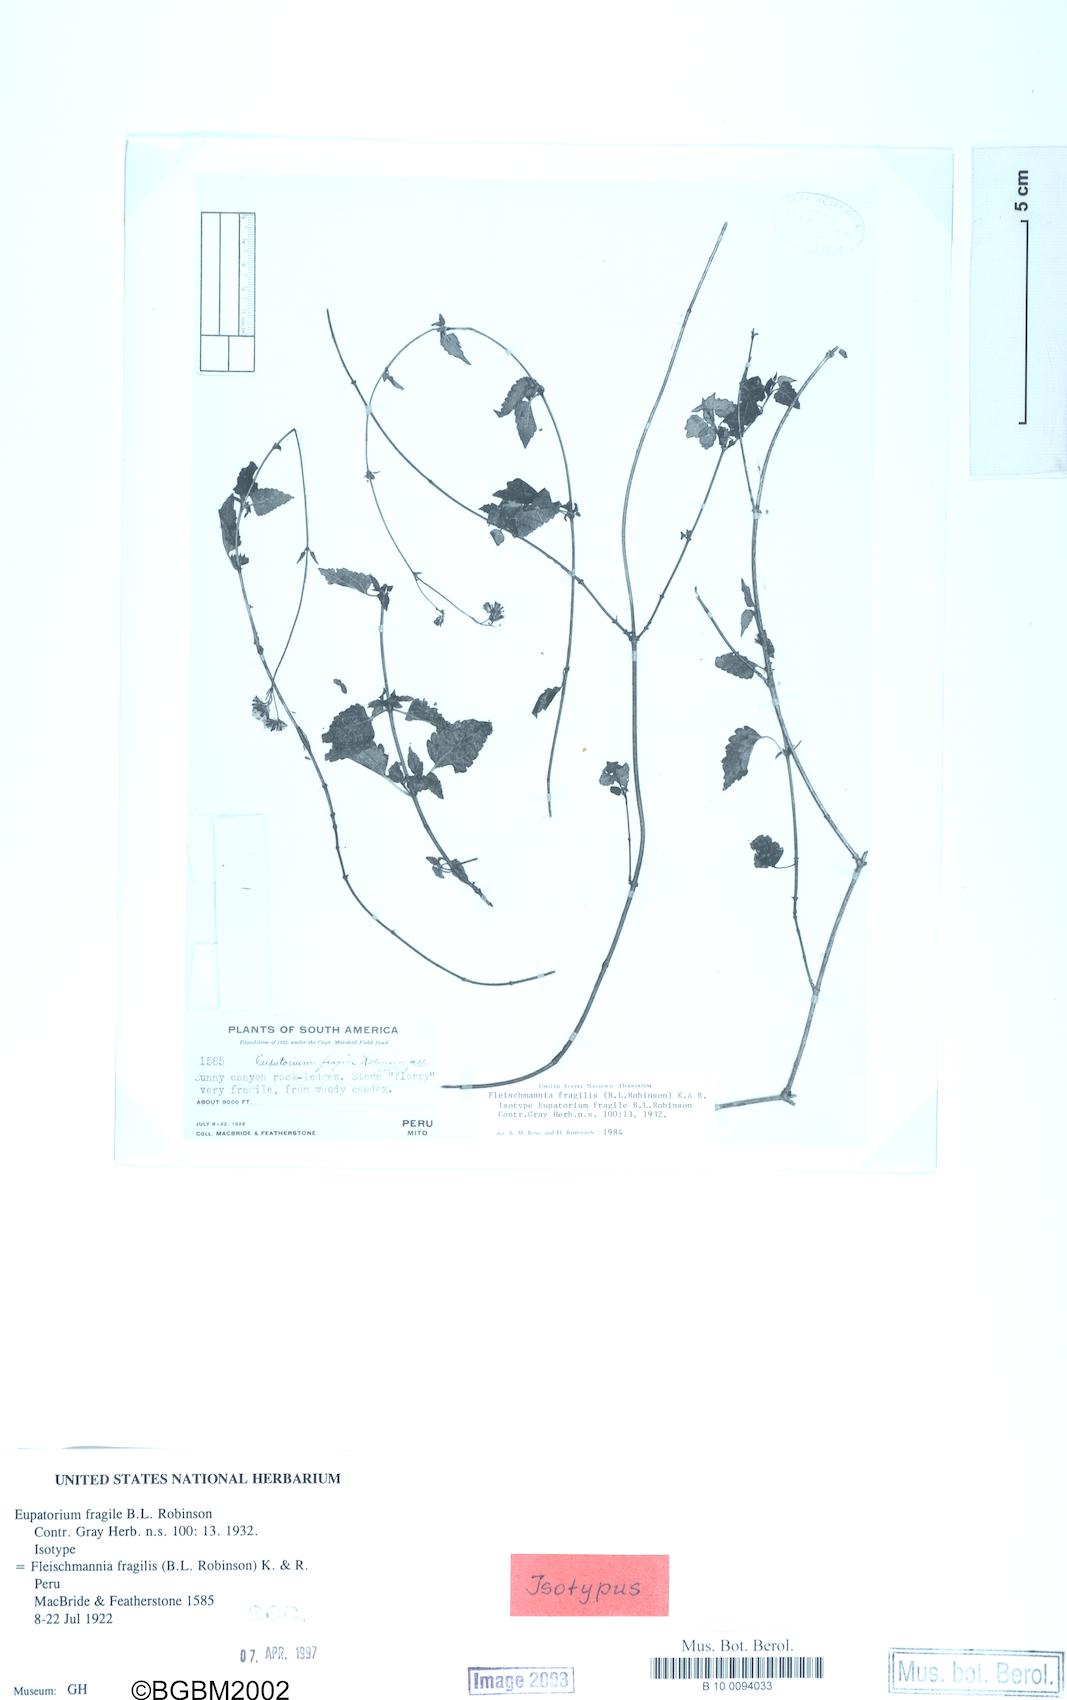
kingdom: Plantae
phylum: Tracheophyta
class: Magnoliopsida
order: Asterales
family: Asteraceae
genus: Fleischmannia
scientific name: Fleischmannia fragilis
